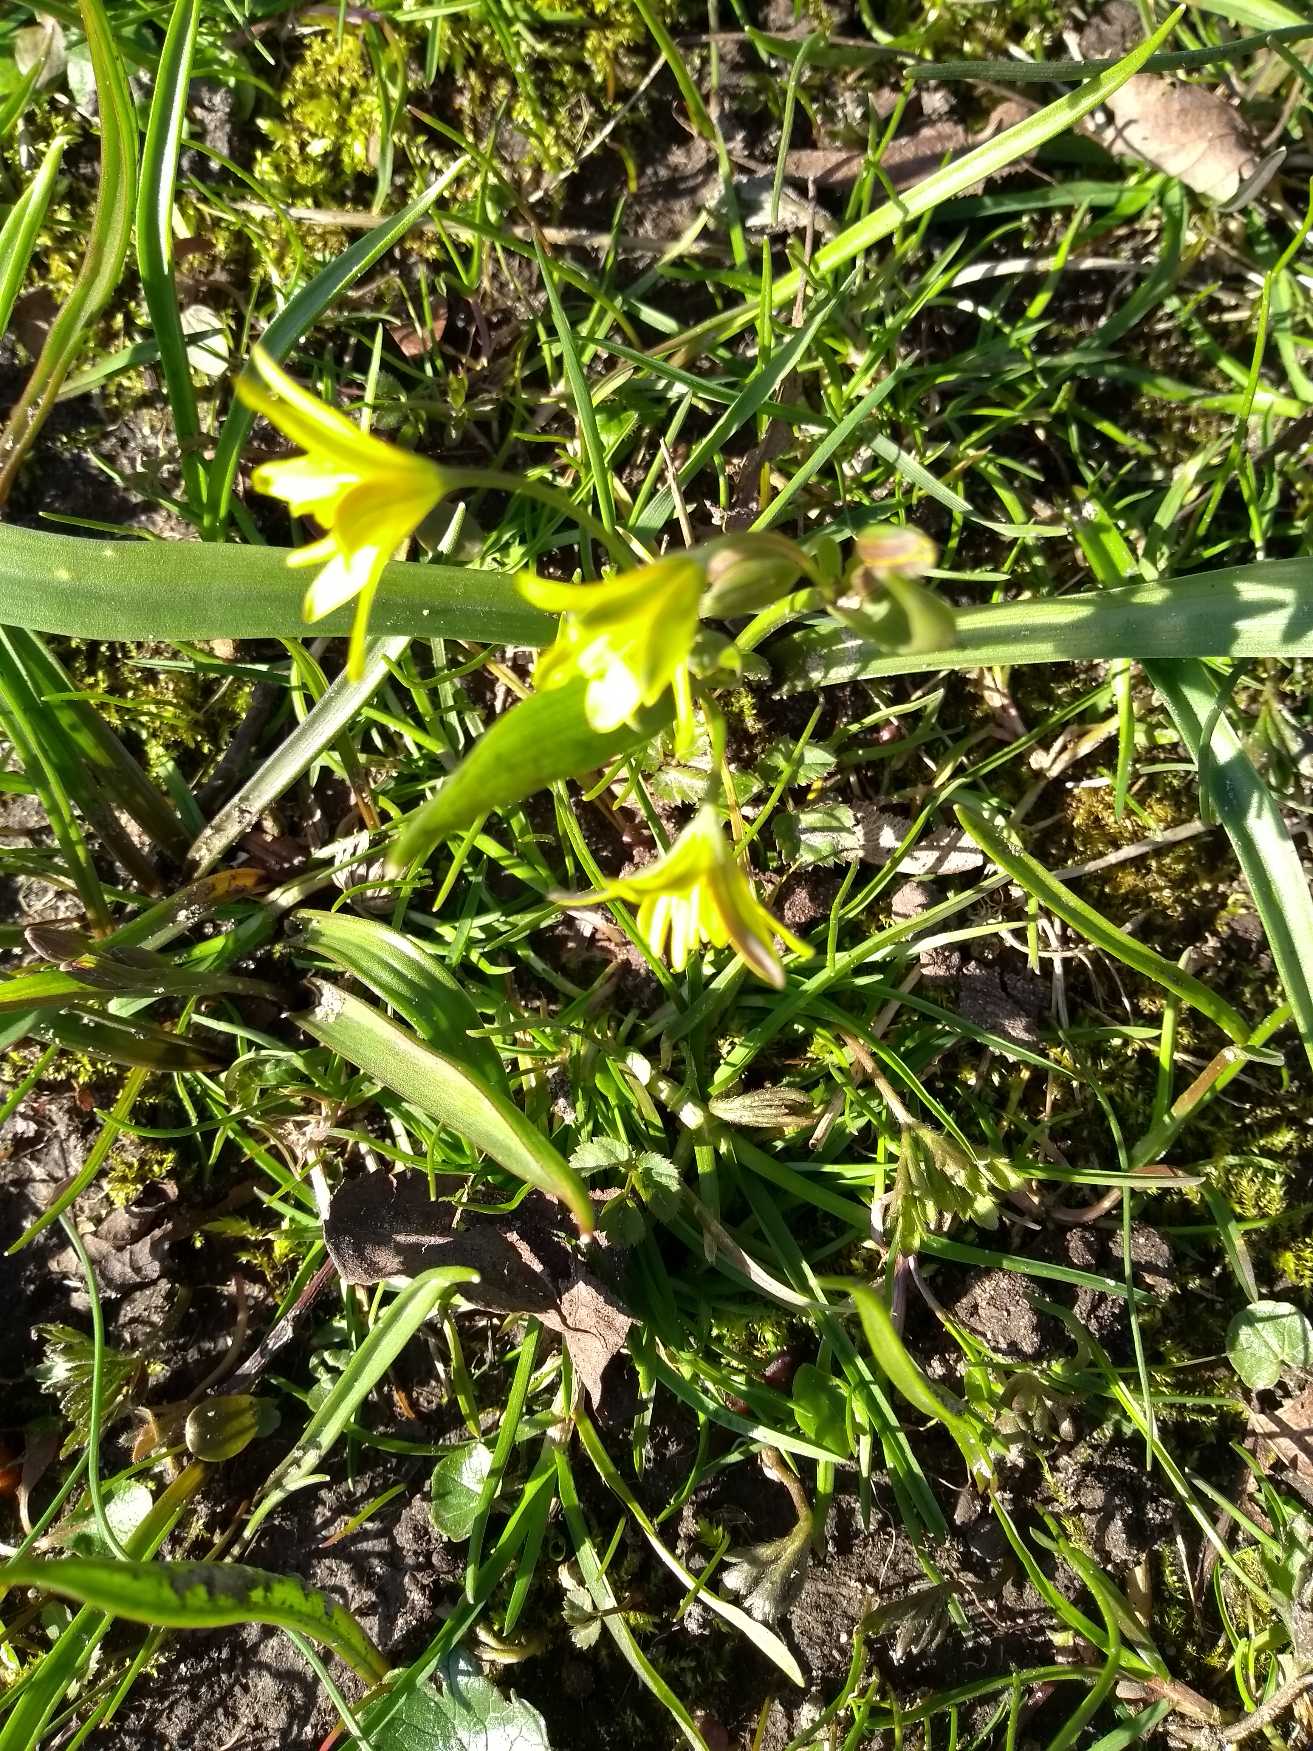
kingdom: Plantae
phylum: Tracheophyta
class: Liliopsida
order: Liliales
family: Liliaceae
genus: Gagea
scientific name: Gagea lutea
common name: Almindelig guldstjerne
